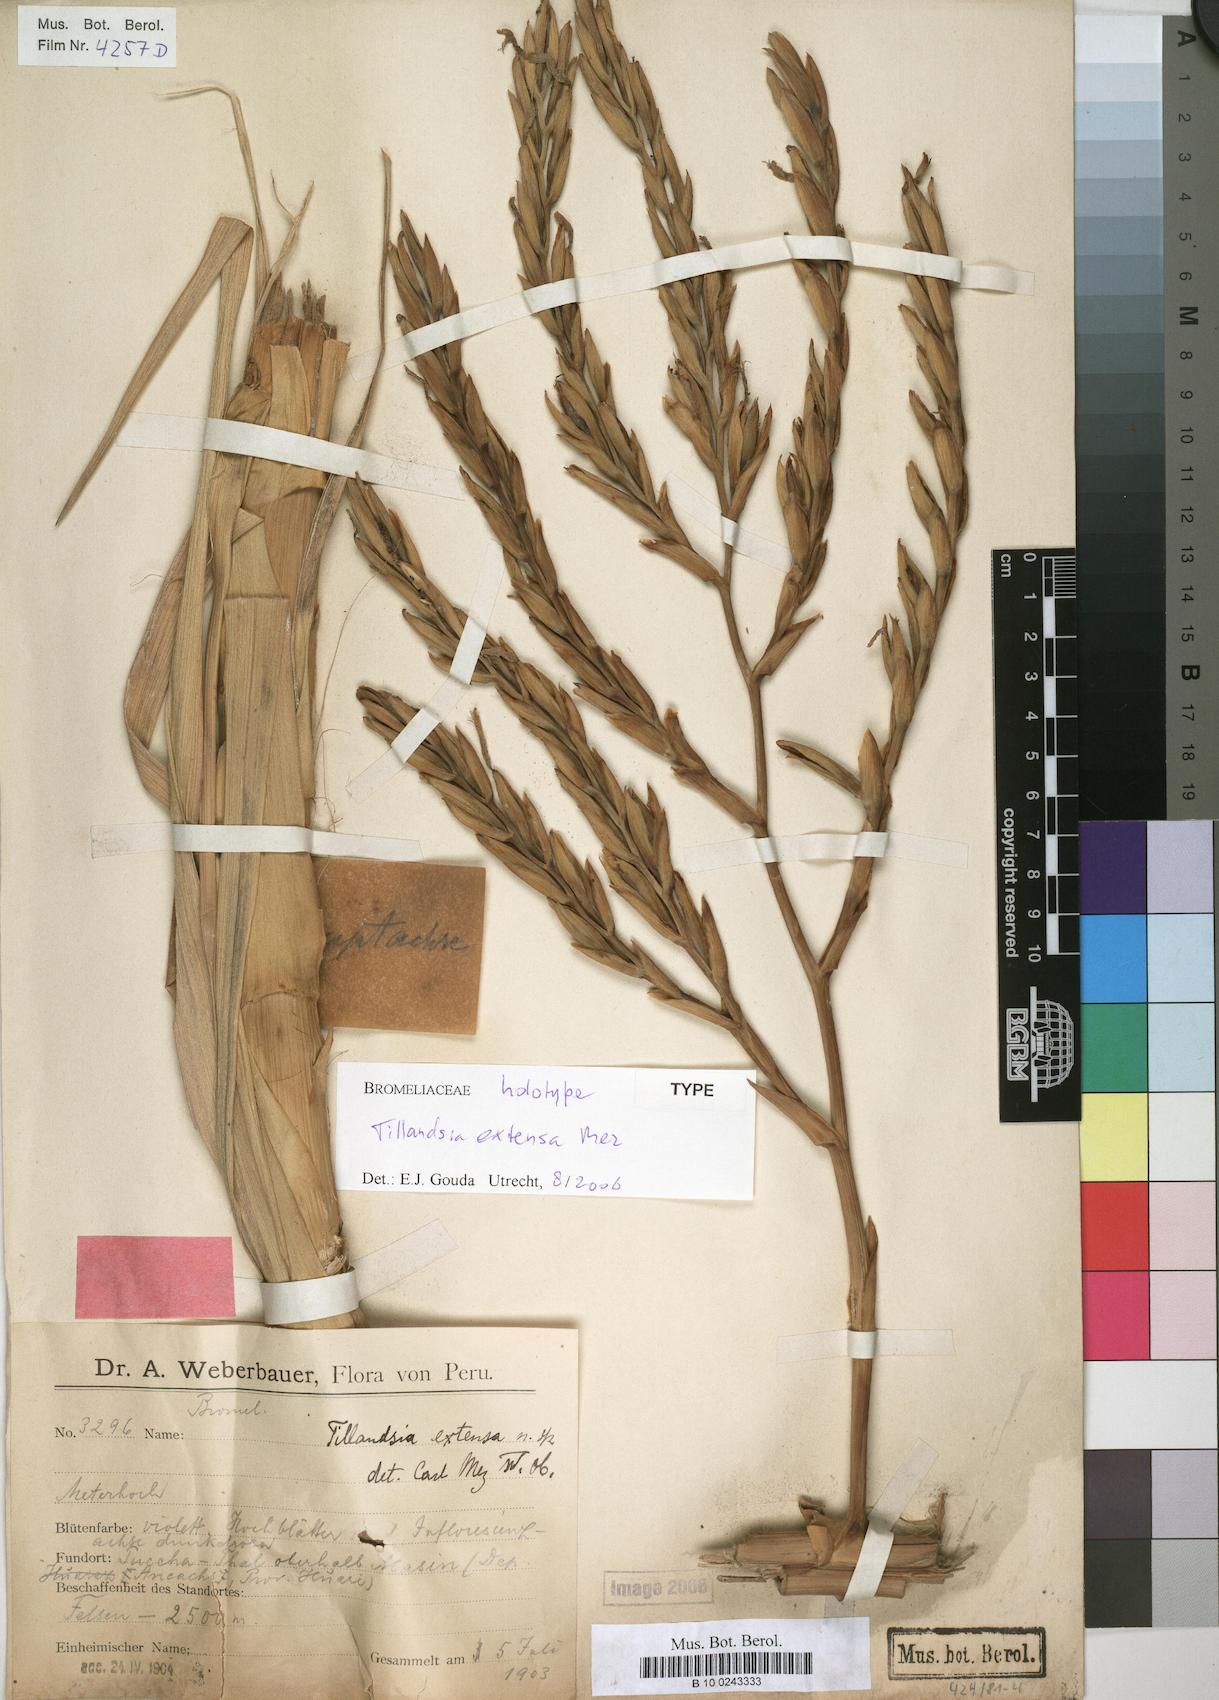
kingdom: Plantae
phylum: Tracheophyta
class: Liliopsida
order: Poales
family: Bromeliaceae
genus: Tillandsia
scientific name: Tillandsia extensa
